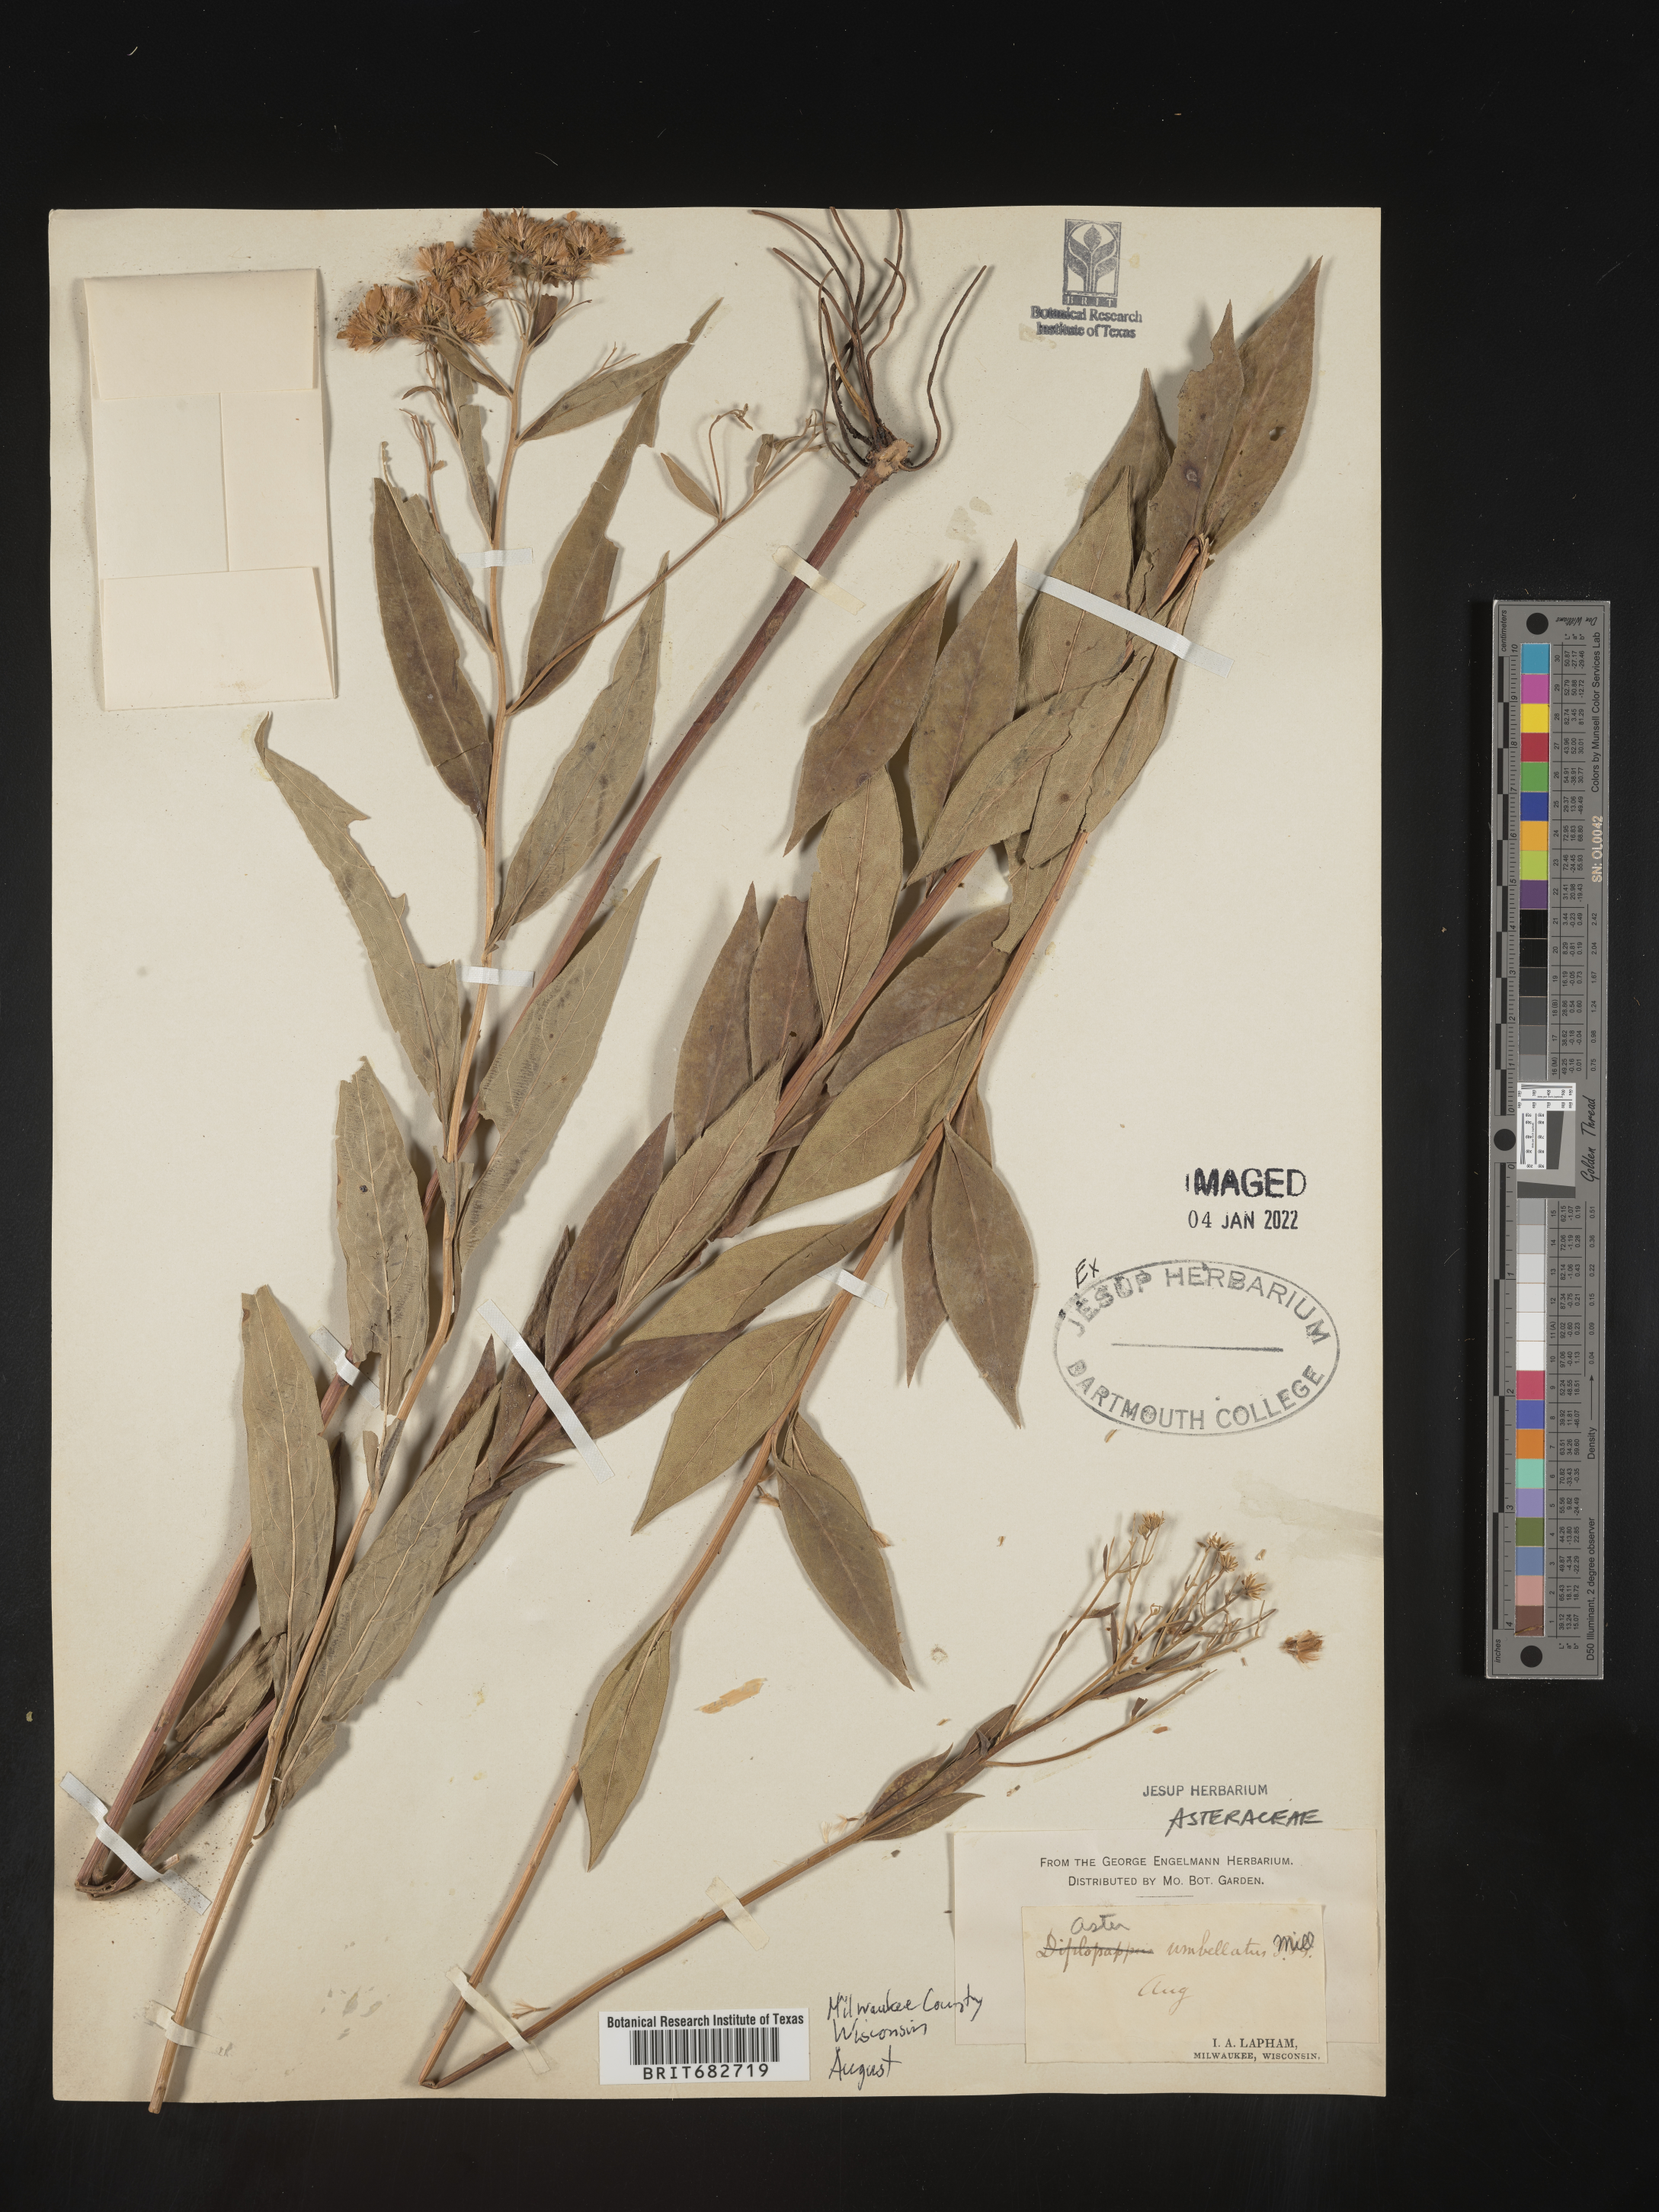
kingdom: Plantae
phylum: Tracheophyta
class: Magnoliopsida
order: Asterales
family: Asteraceae
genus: Doellingeria
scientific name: Doellingeria umbellata
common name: Flat-top white aster
